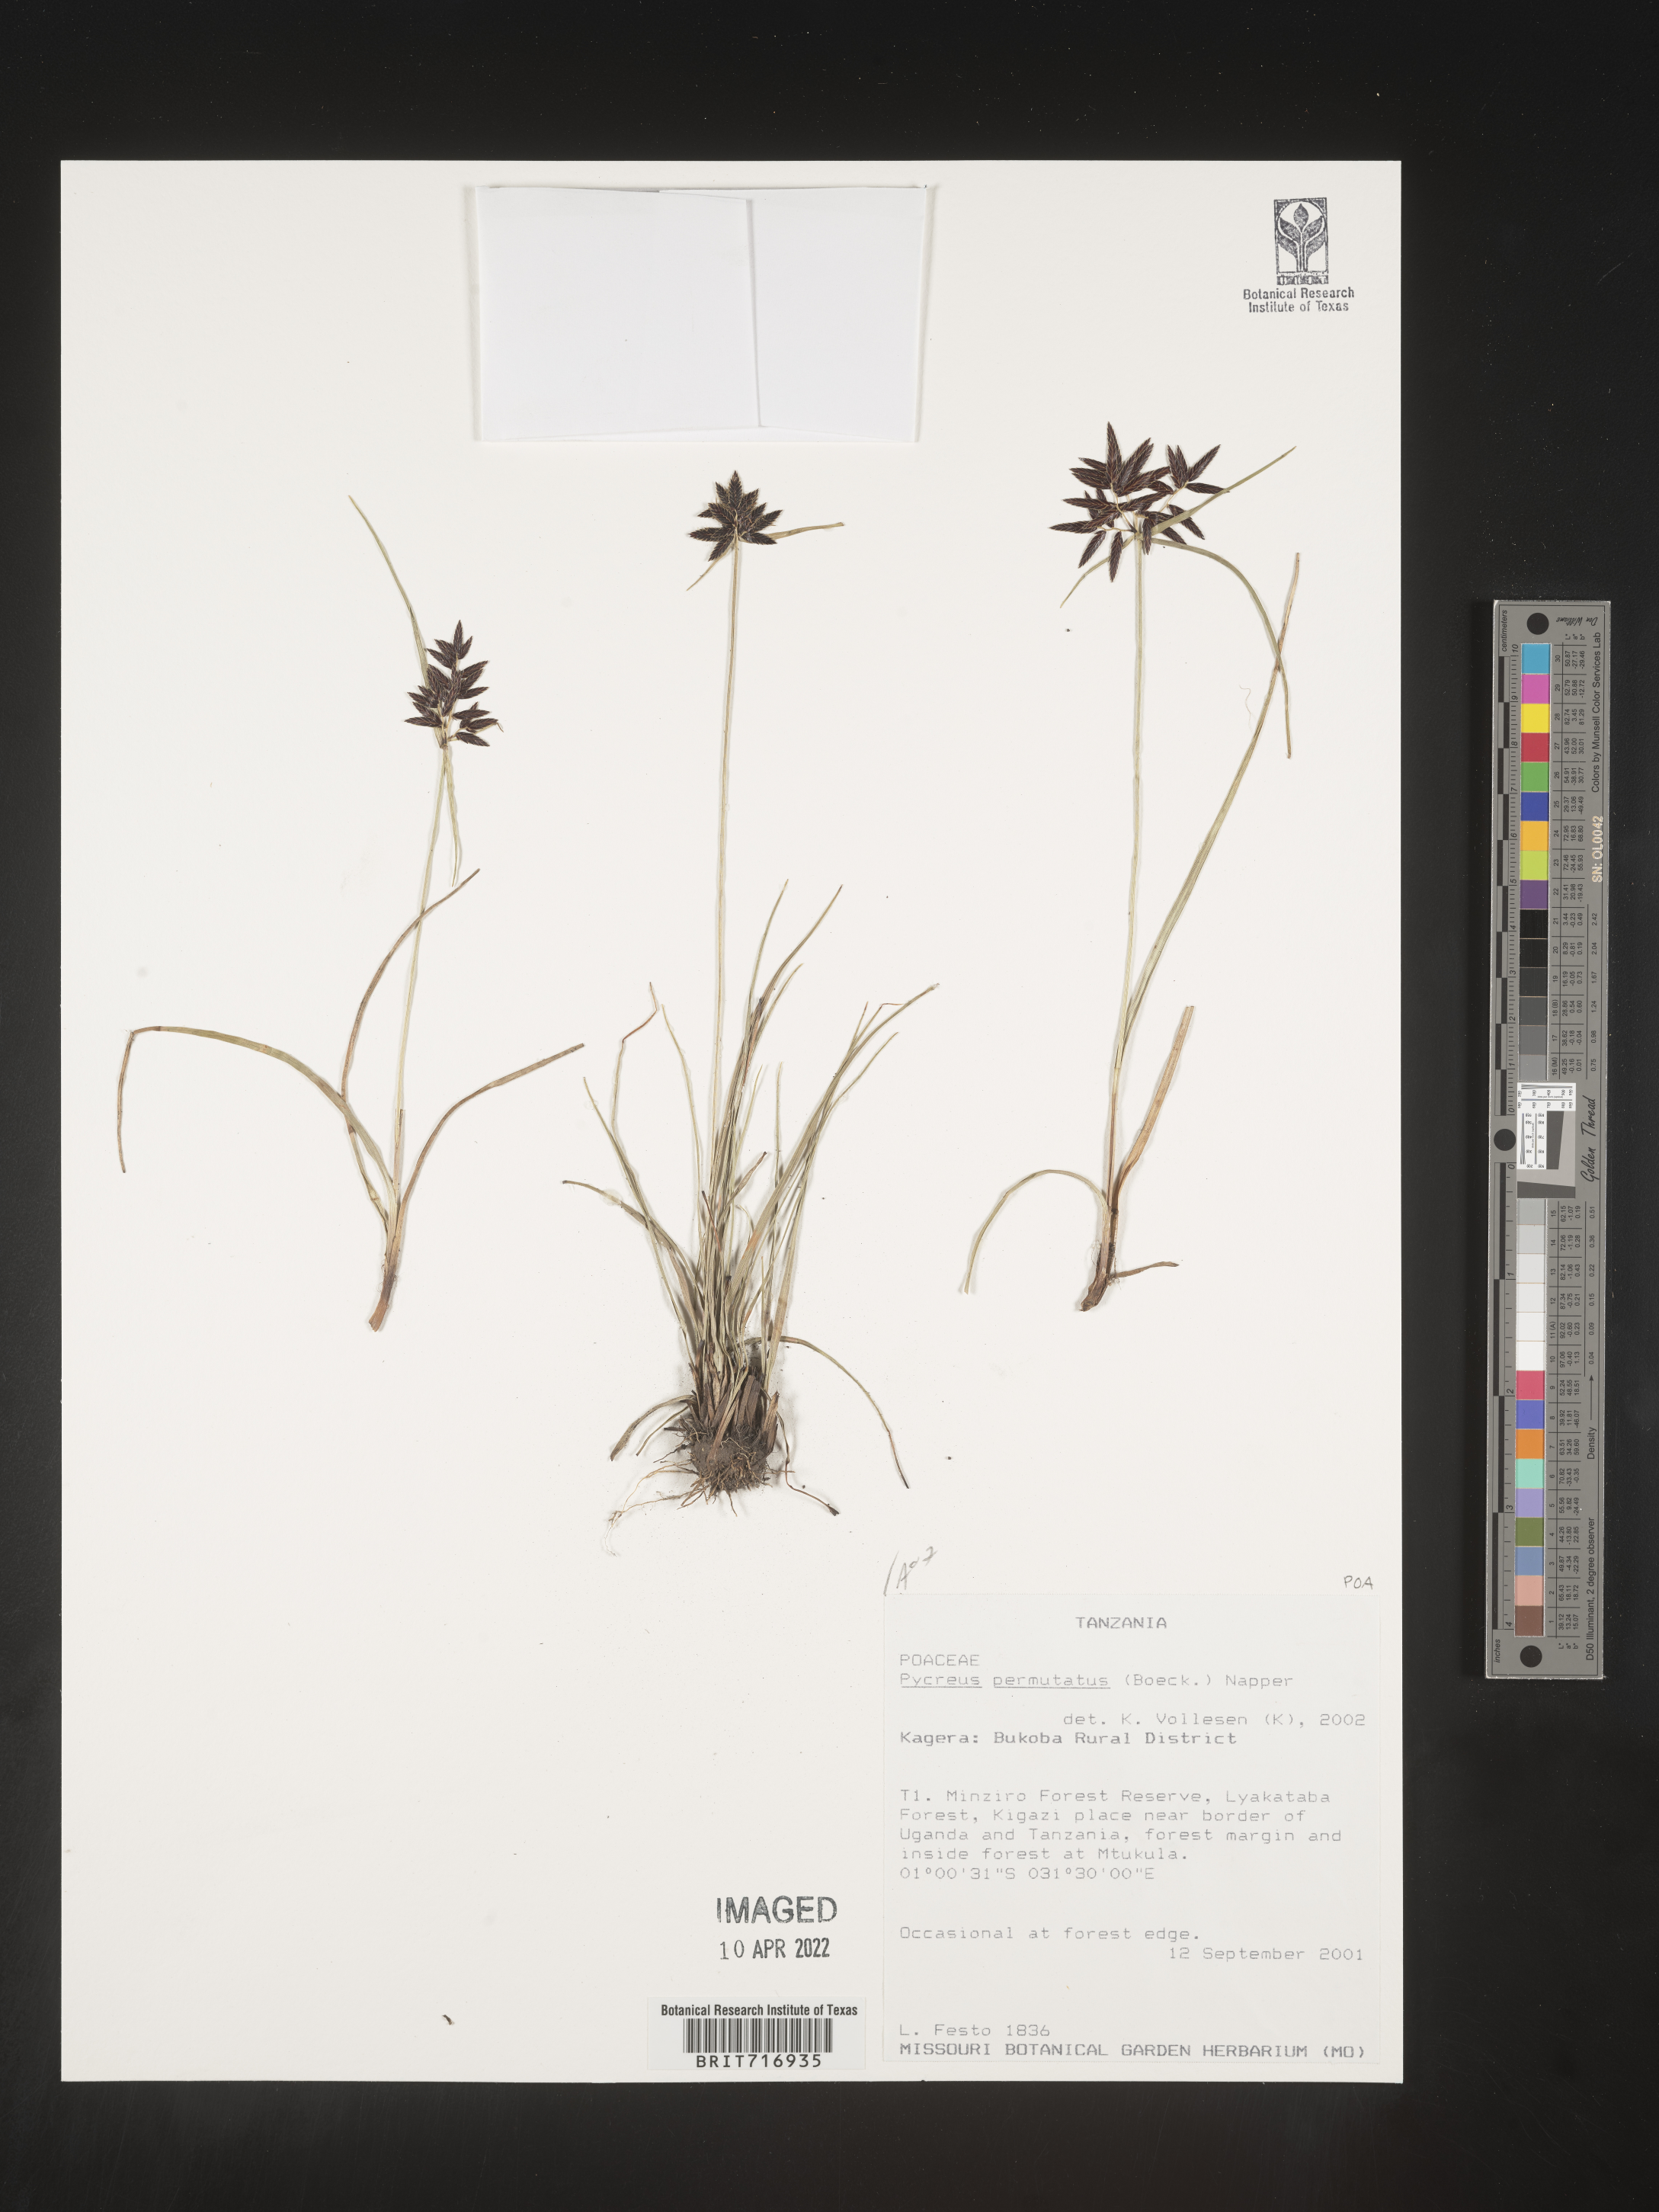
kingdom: Plantae
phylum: Tracheophyta
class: Liliopsida
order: Poales
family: Cyperaceae
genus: Cyperus
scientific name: Cyperus
